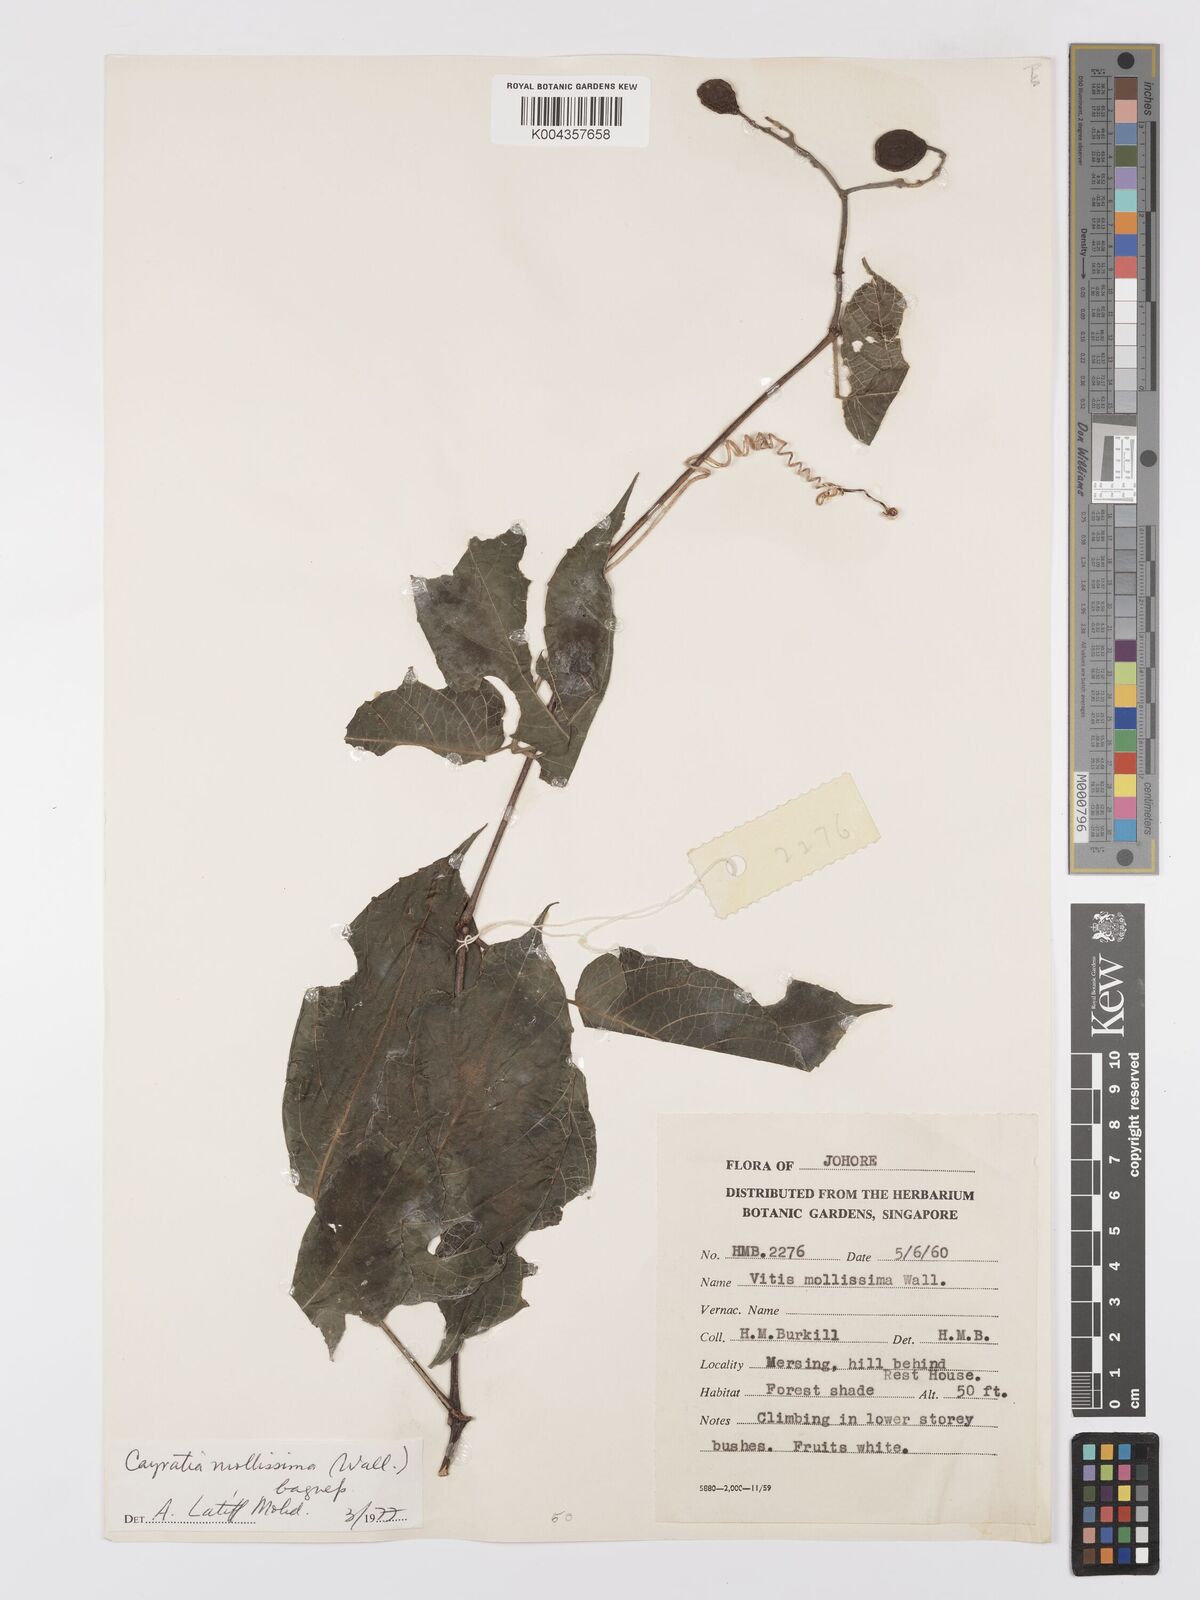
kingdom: Plantae
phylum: Tracheophyta
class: Magnoliopsida
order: Vitales
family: Vitaceae
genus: Cayratia
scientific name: Cayratia mollissima
